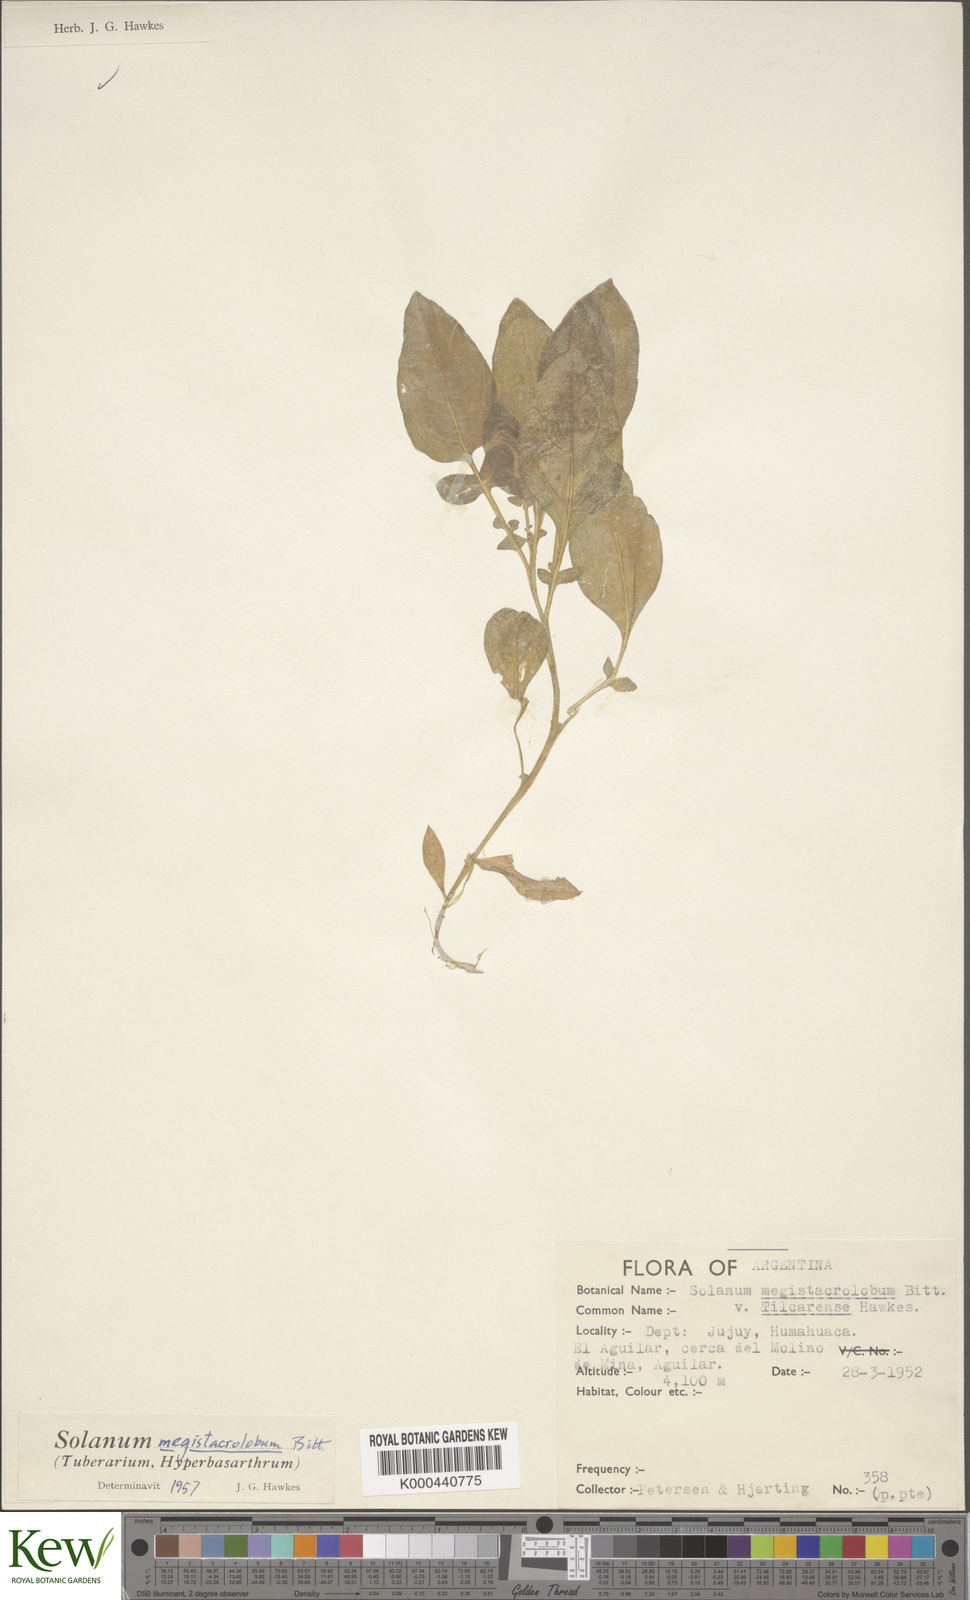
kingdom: Plantae
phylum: Tracheophyta
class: Magnoliopsida
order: Solanales
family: Solanaceae
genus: Solanum
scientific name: Solanum boliviense
